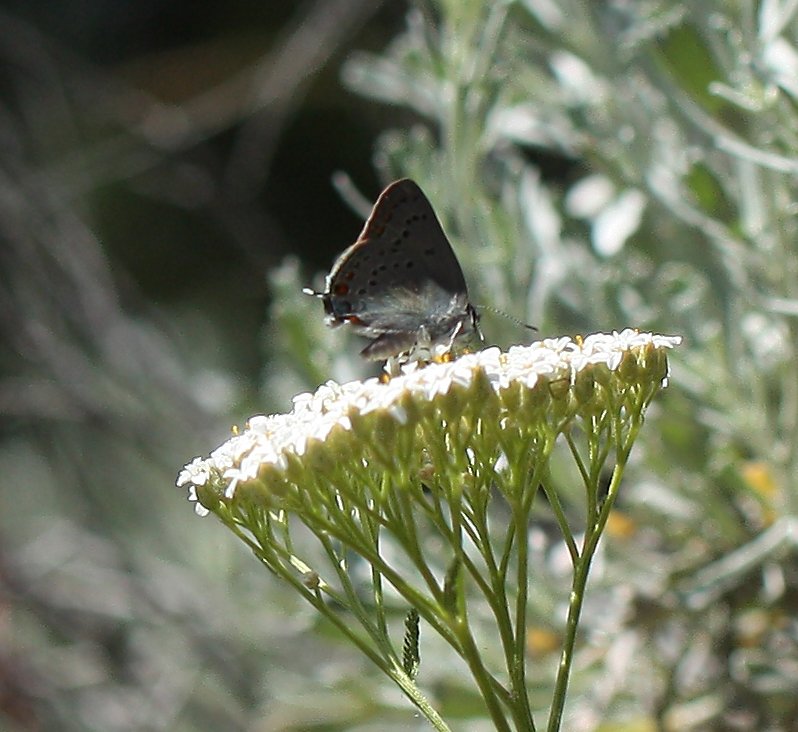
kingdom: Animalia
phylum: Arthropoda
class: Insecta
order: Lepidoptera
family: Lycaenidae
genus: Strymon
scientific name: Strymon acadica
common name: California Hairstreak
